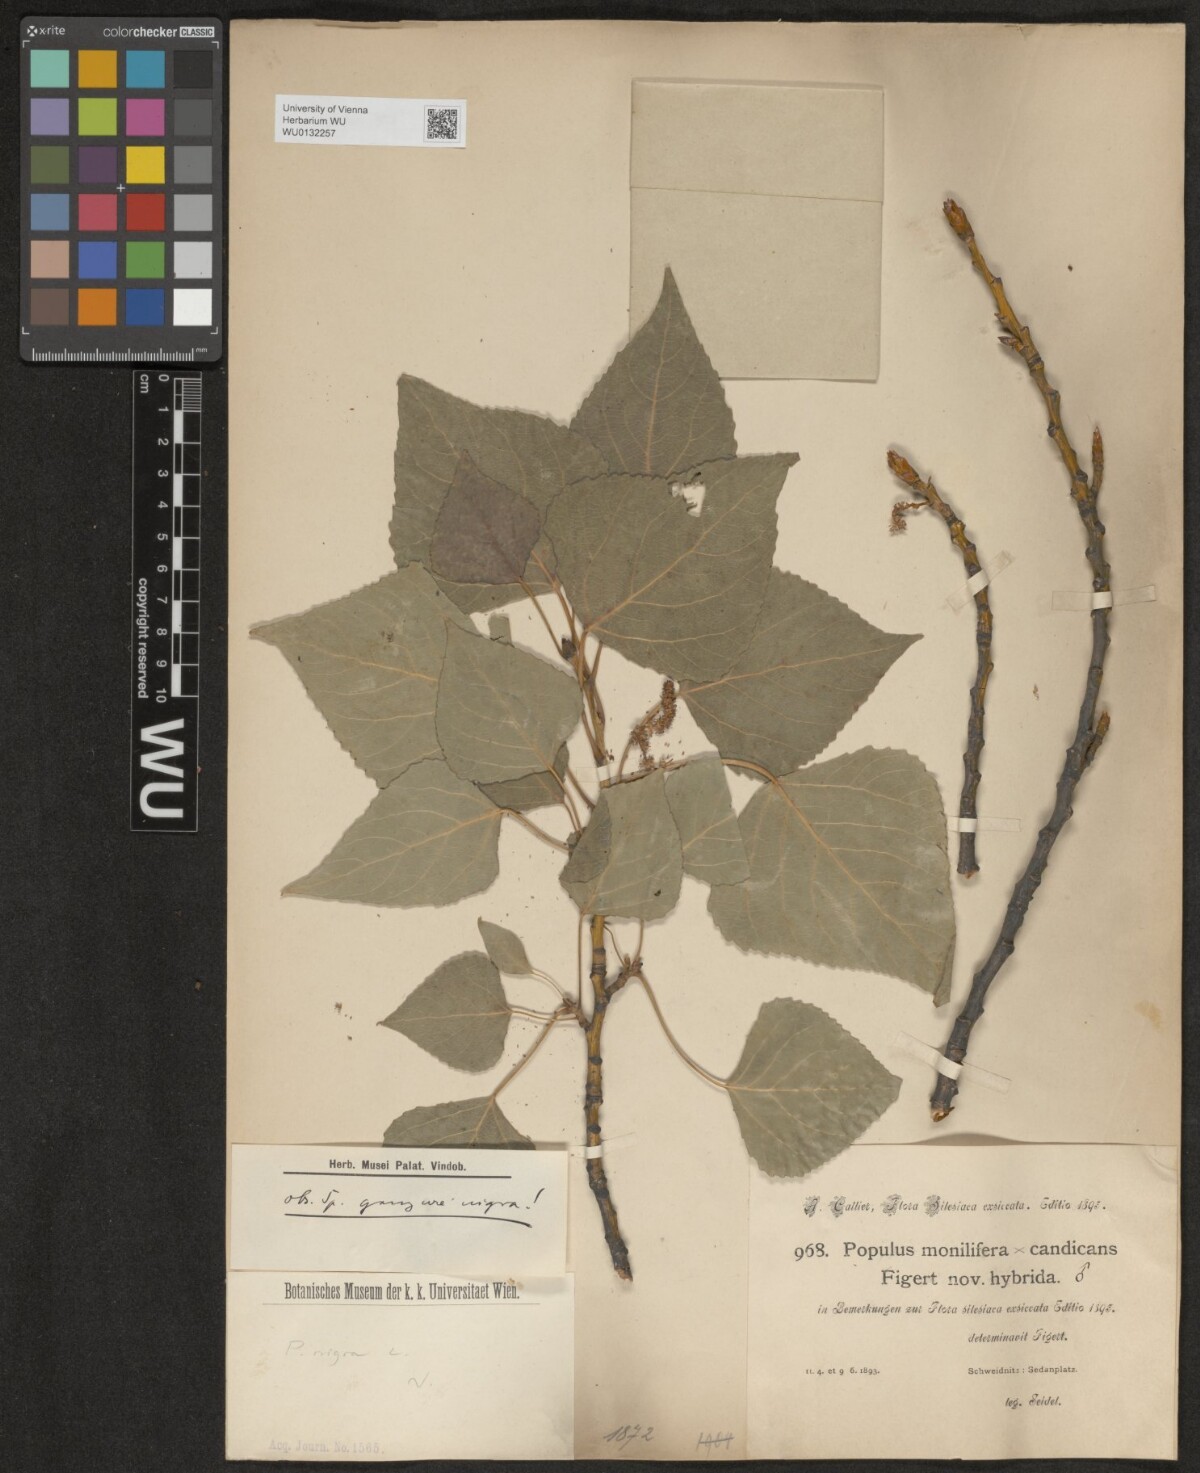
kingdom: Plantae
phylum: Tracheophyta
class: Magnoliopsida
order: Malpighiales
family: Salicaceae
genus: Populus
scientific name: Populus nigra
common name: Black poplar
